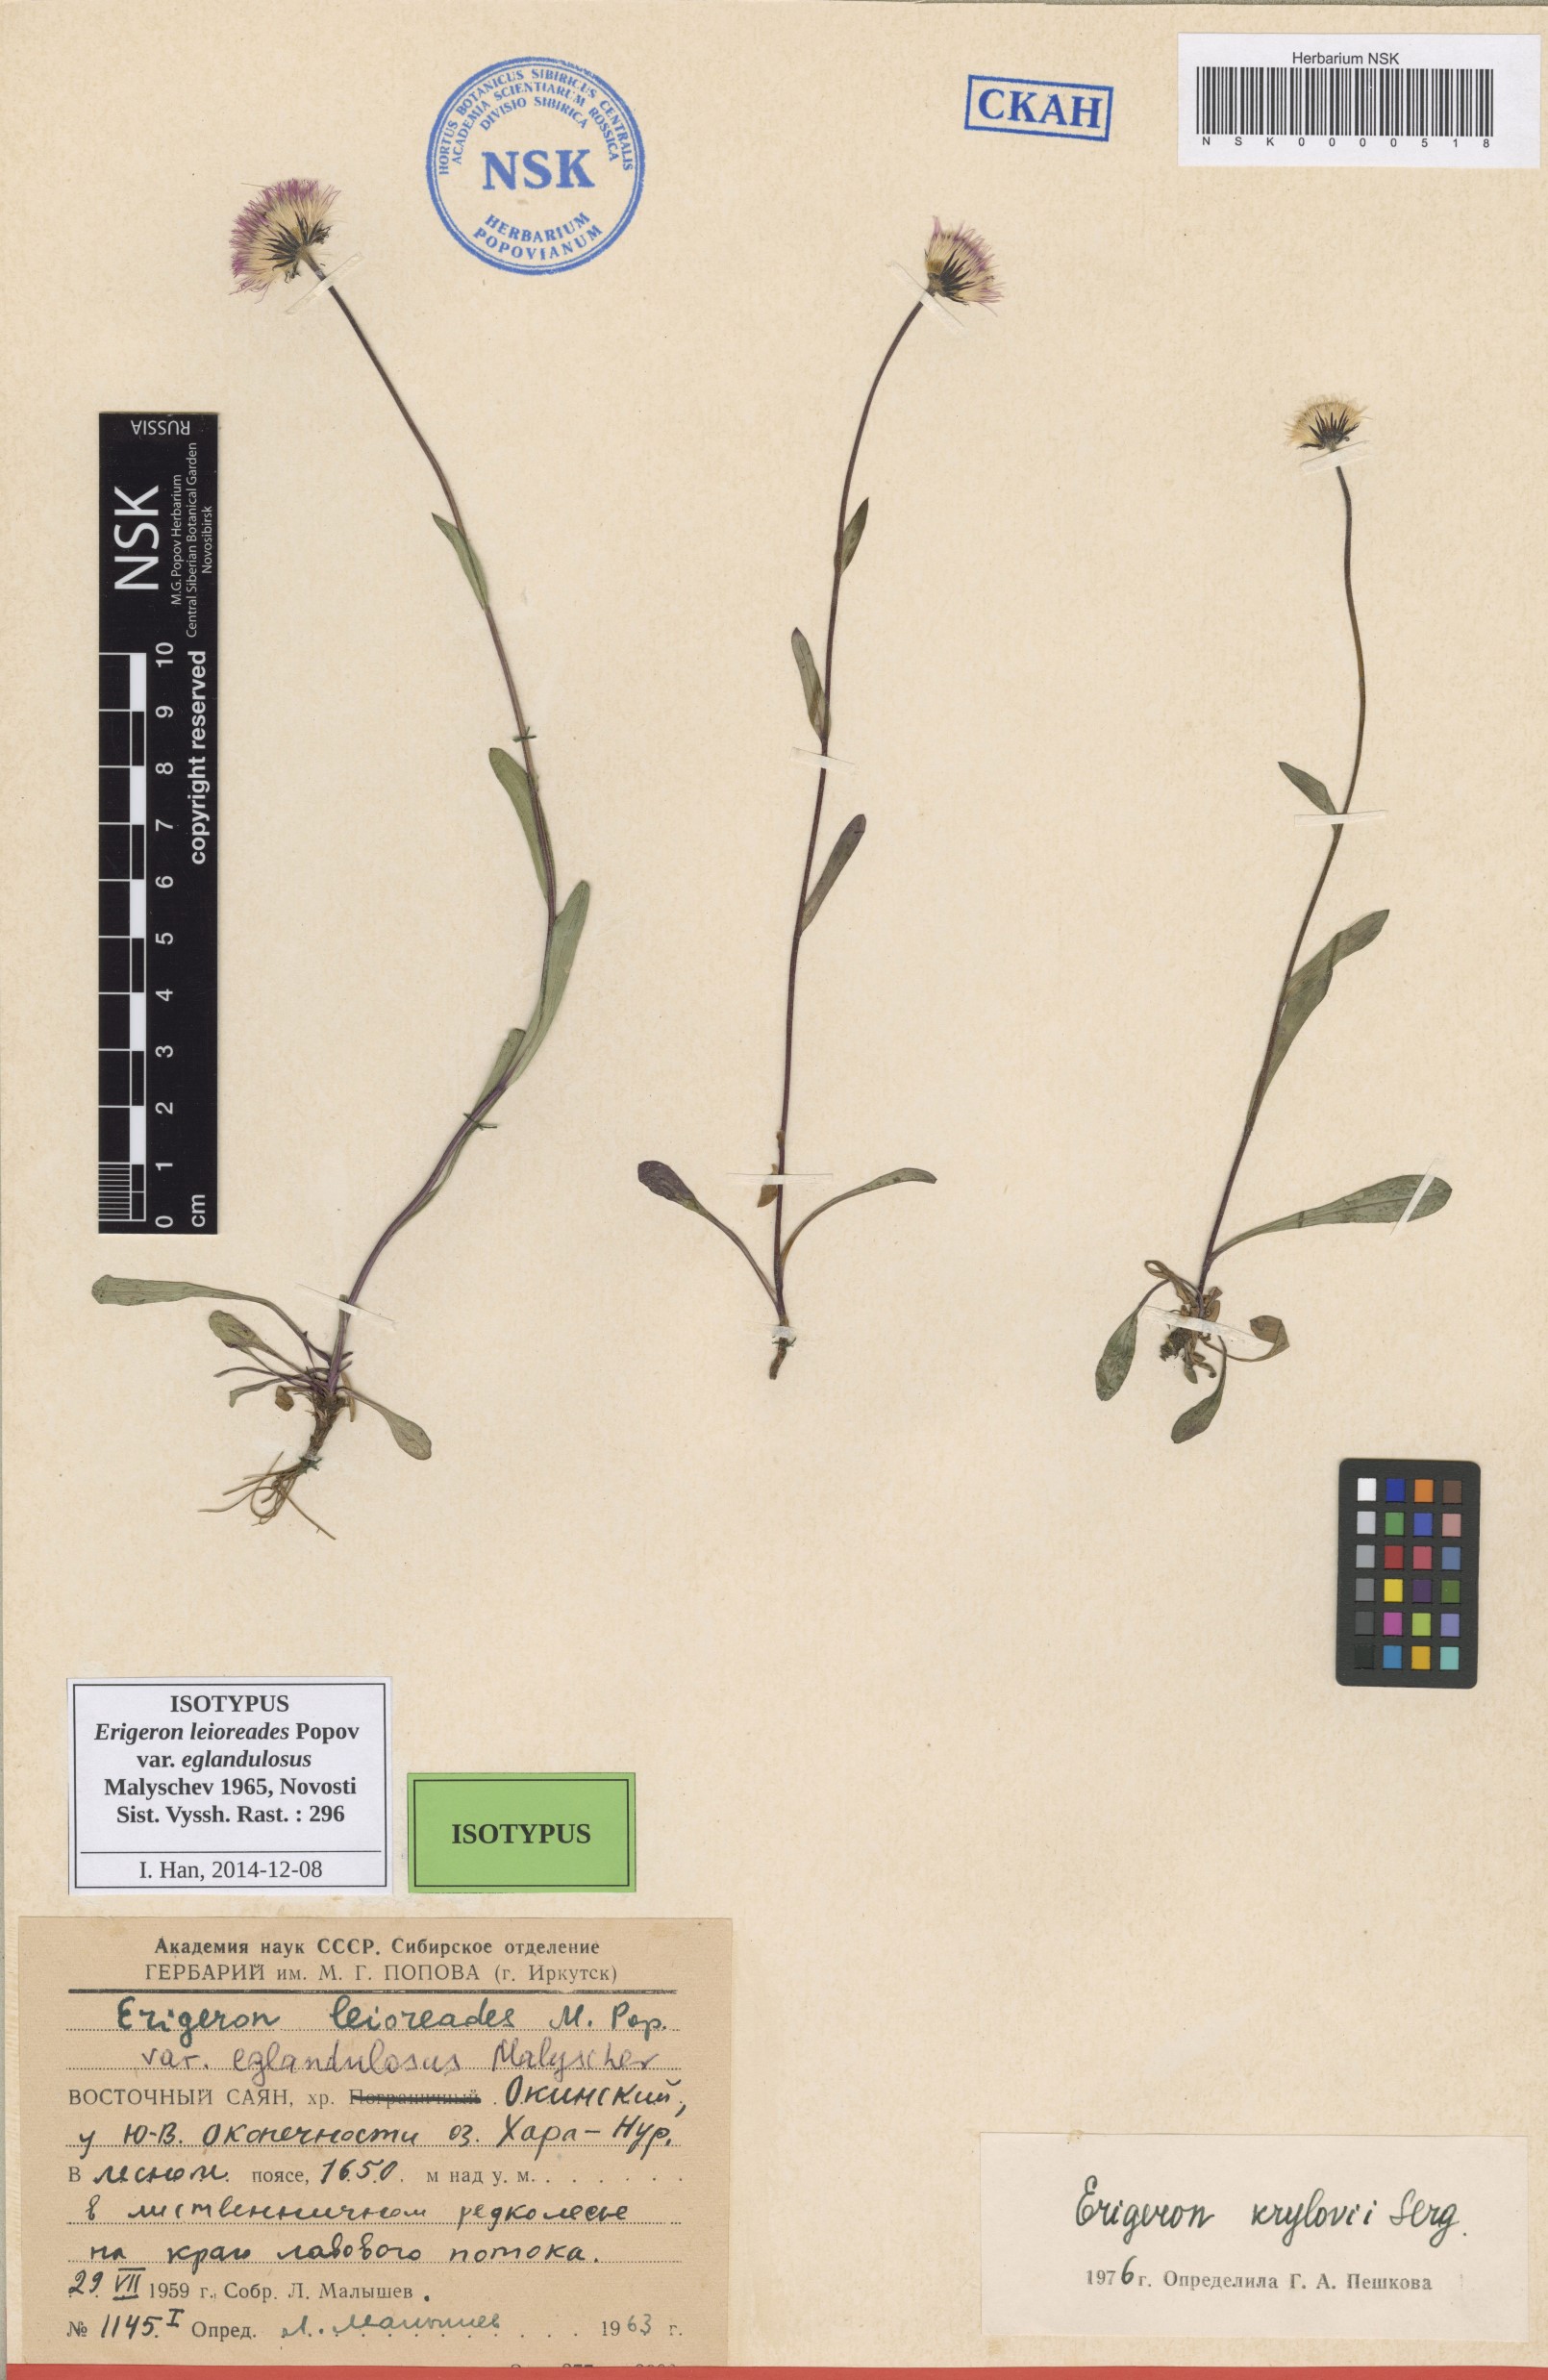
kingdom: Plantae
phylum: Tracheophyta
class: Magnoliopsida
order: Asterales
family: Asteraceae
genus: Erigeron
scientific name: Erigeron leioreades
